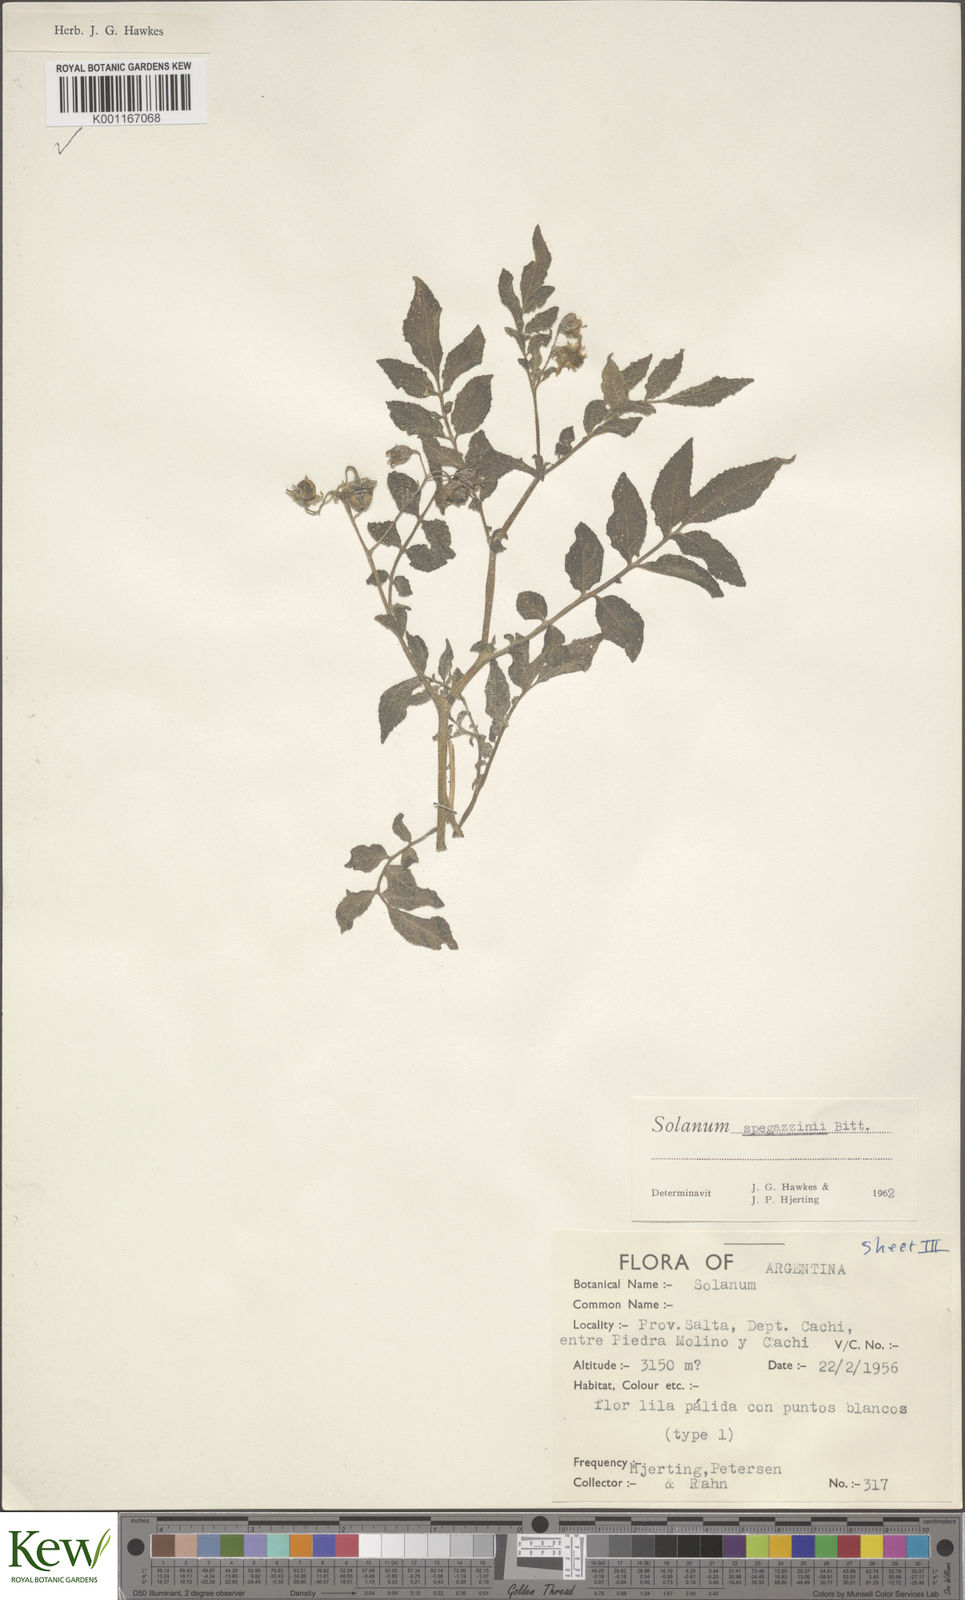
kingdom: Plantae
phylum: Tracheophyta
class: Magnoliopsida
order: Solanales
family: Solanaceae
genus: Solanum
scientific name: Solanum brevicaule
